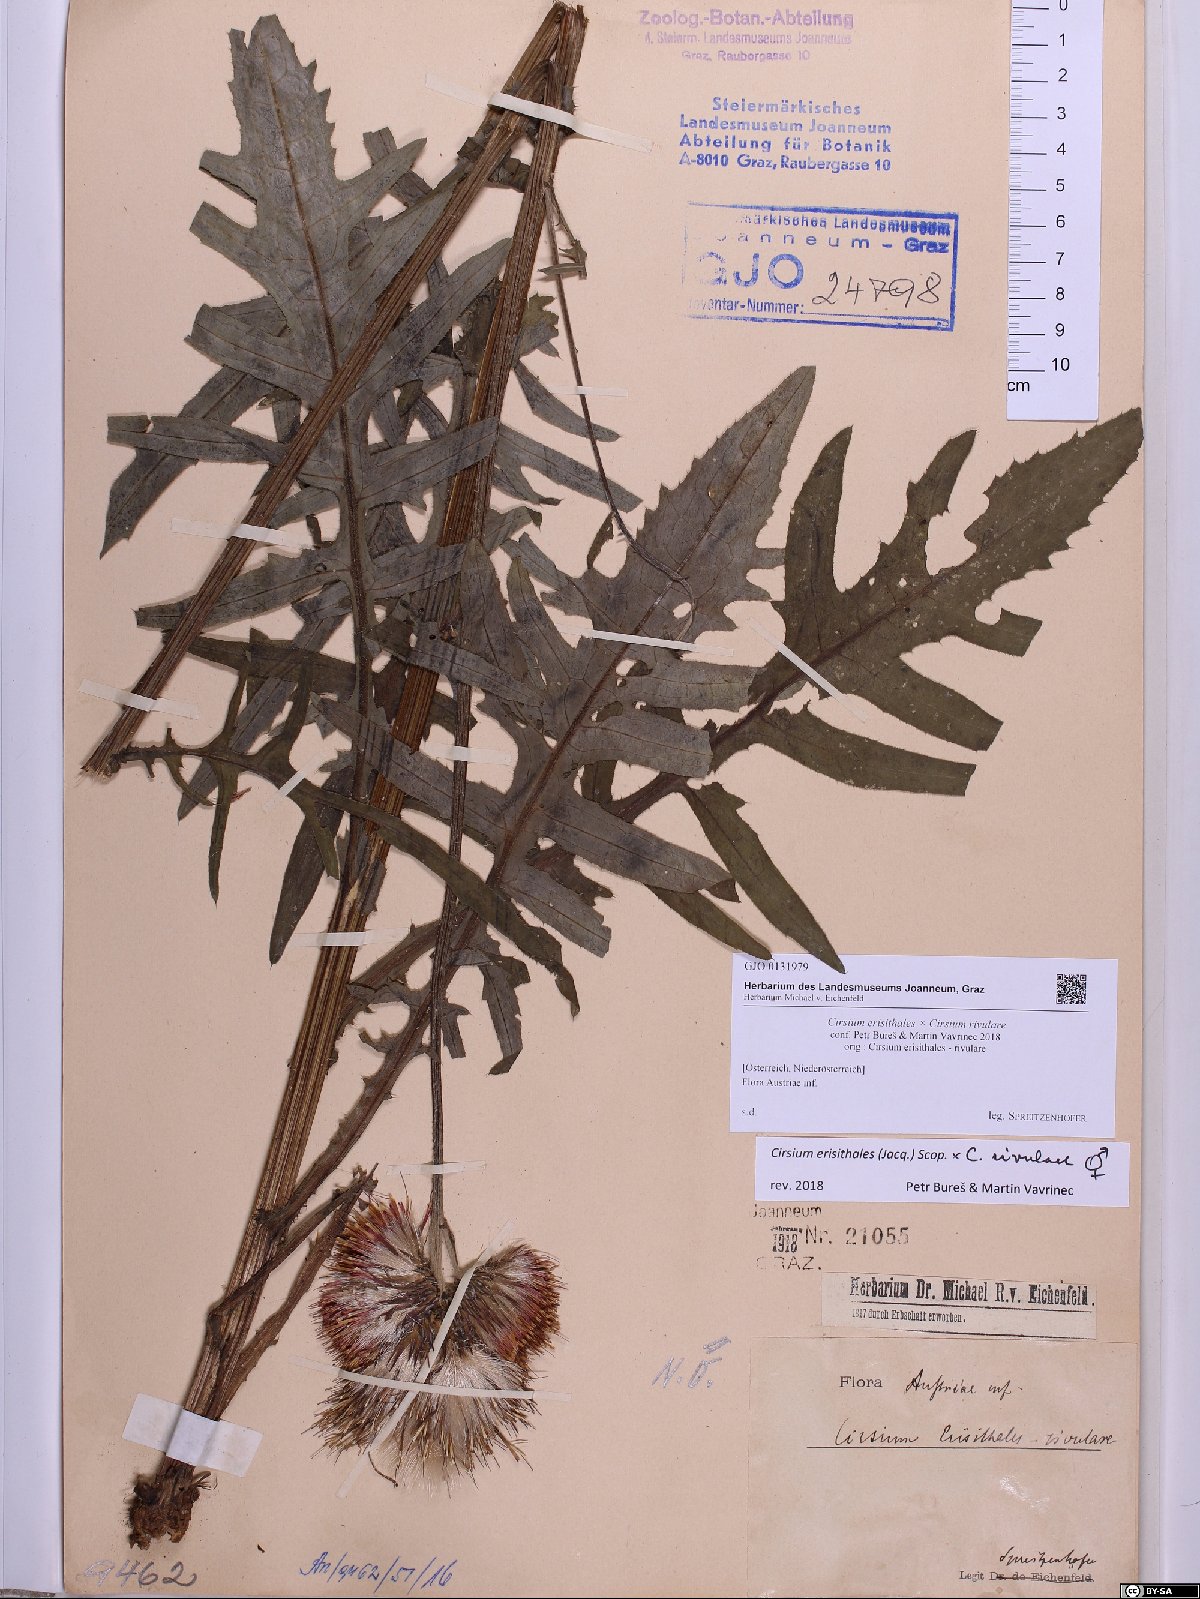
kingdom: Plantae
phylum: Tracheophyta
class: Magnoliopsida
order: Asterales
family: Asteraceae
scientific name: Asteraceae
